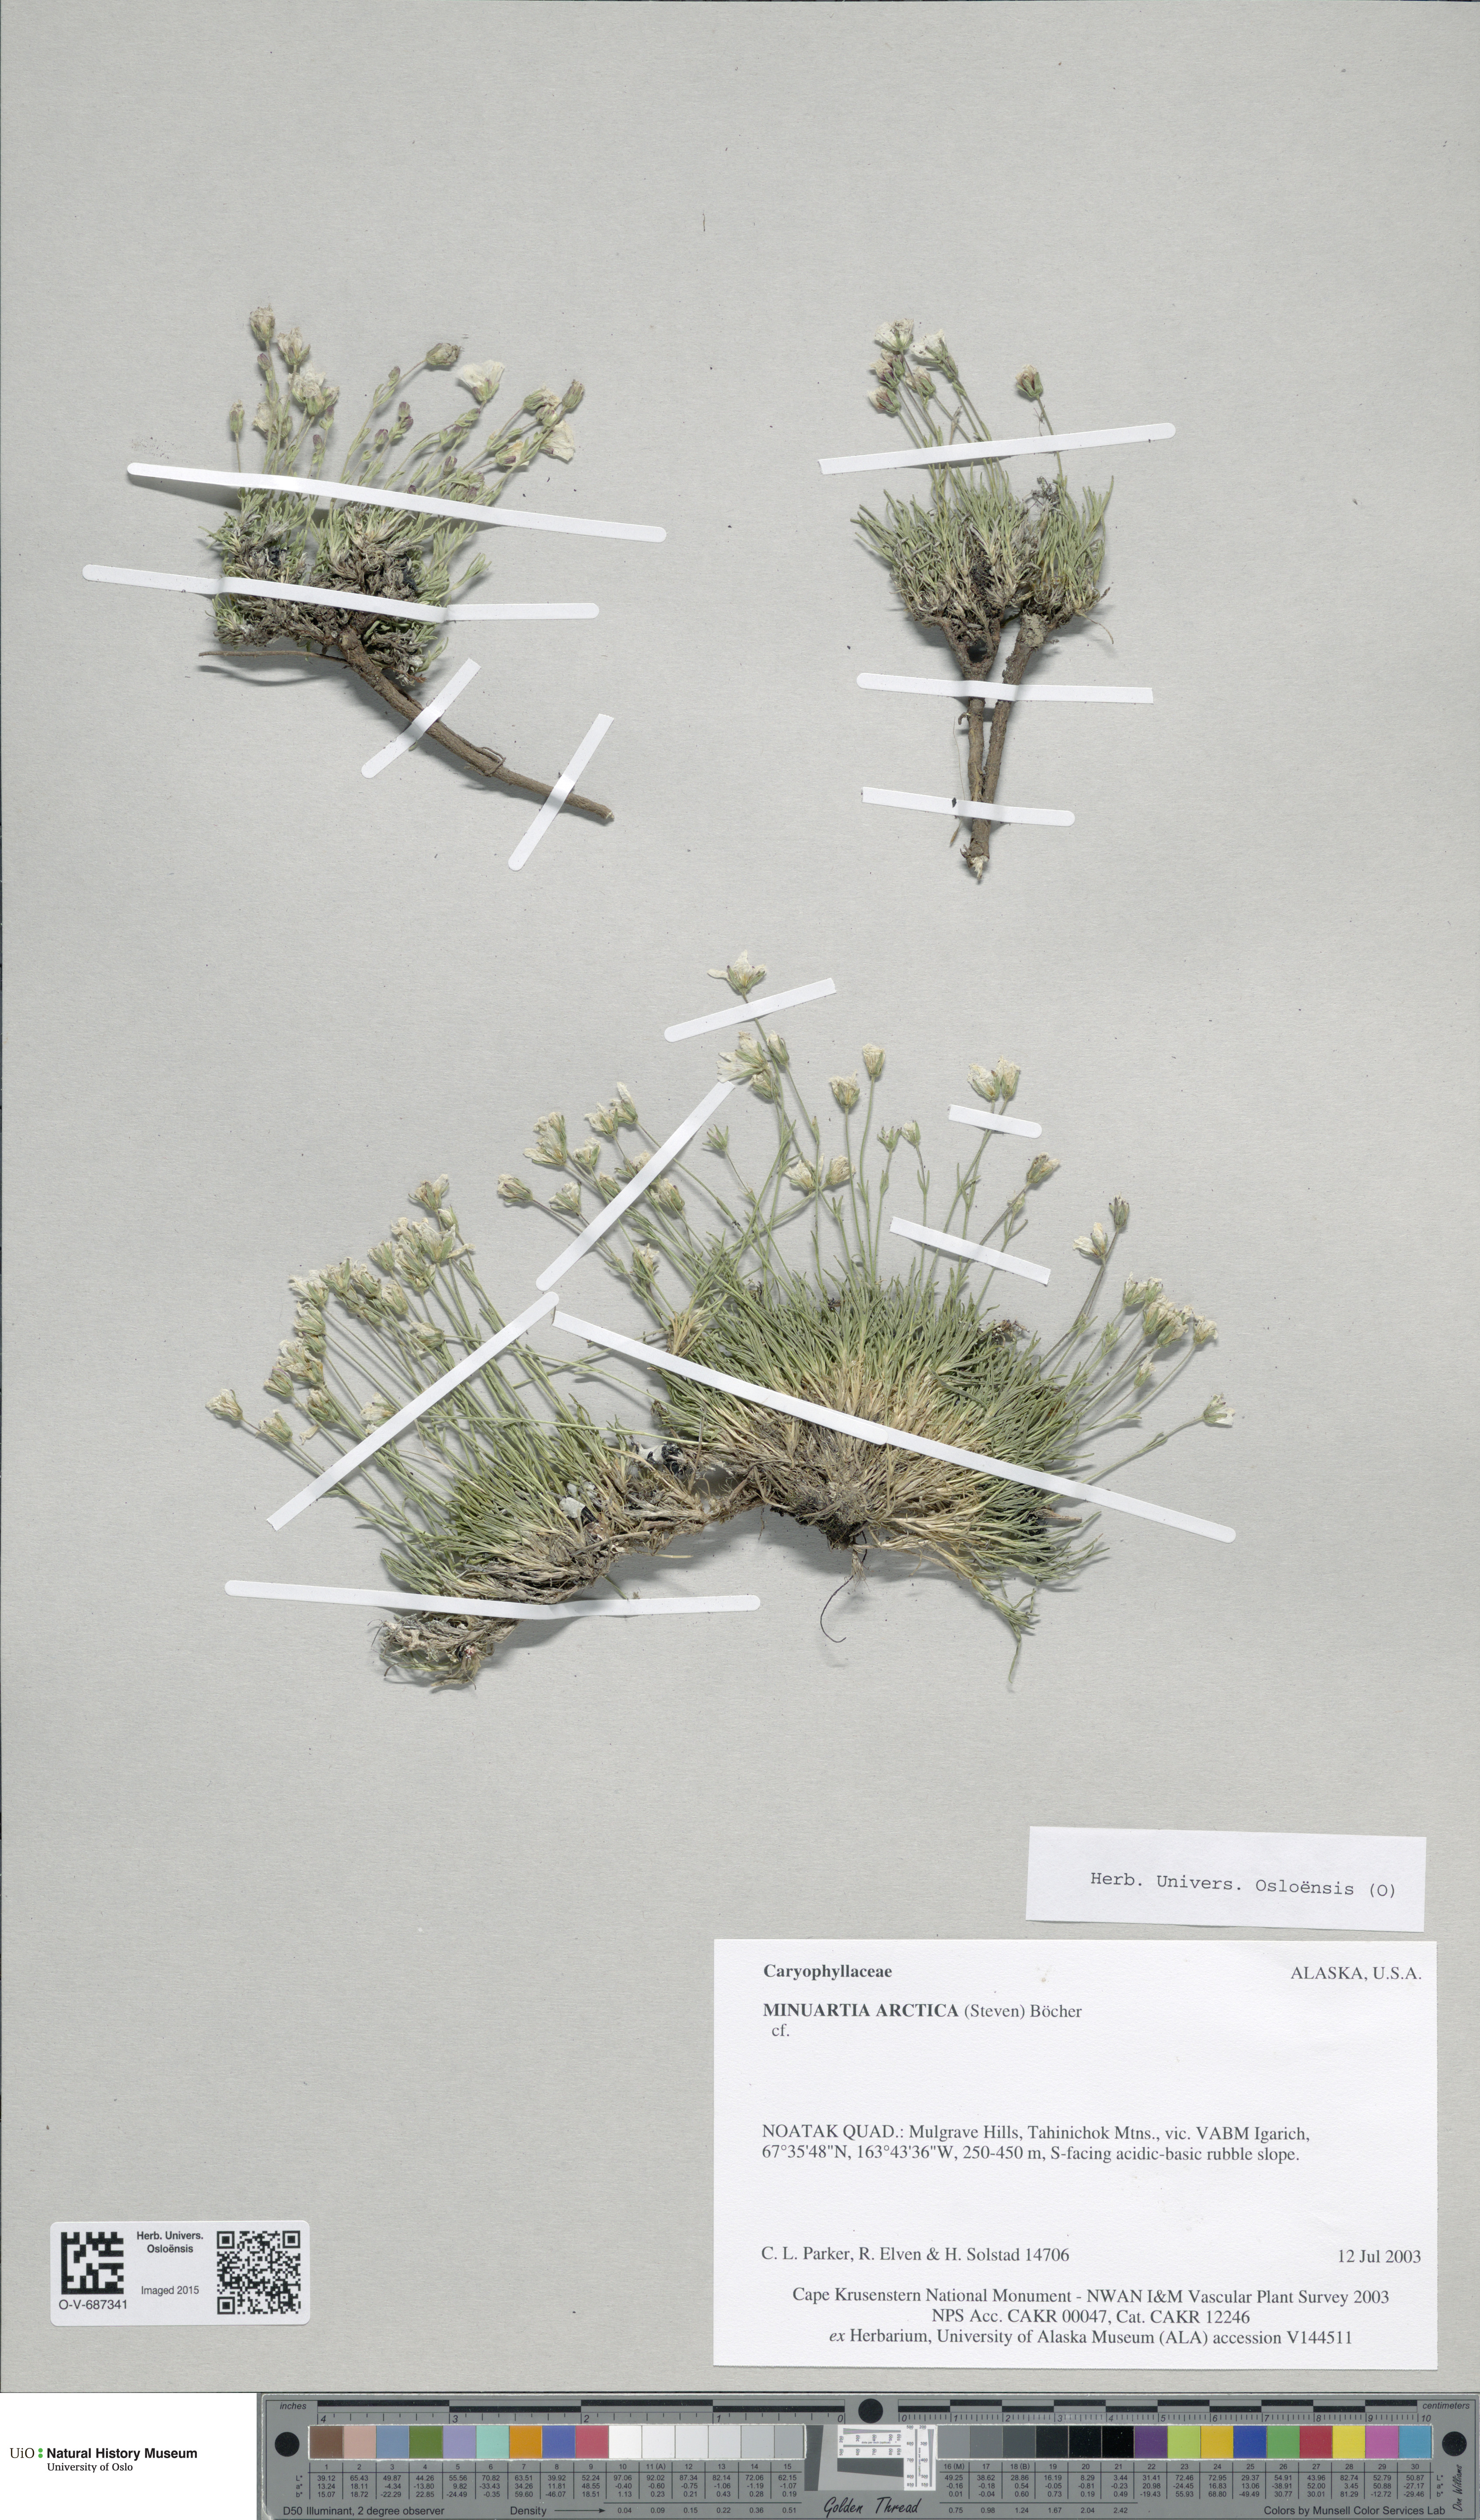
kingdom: Plantae
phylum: Tracheophyta
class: Magnoliopsida
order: Caryophyllales
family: Caryophyllaceae
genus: Cherleria
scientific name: Cherleria arctica
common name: Arctic sandwort
